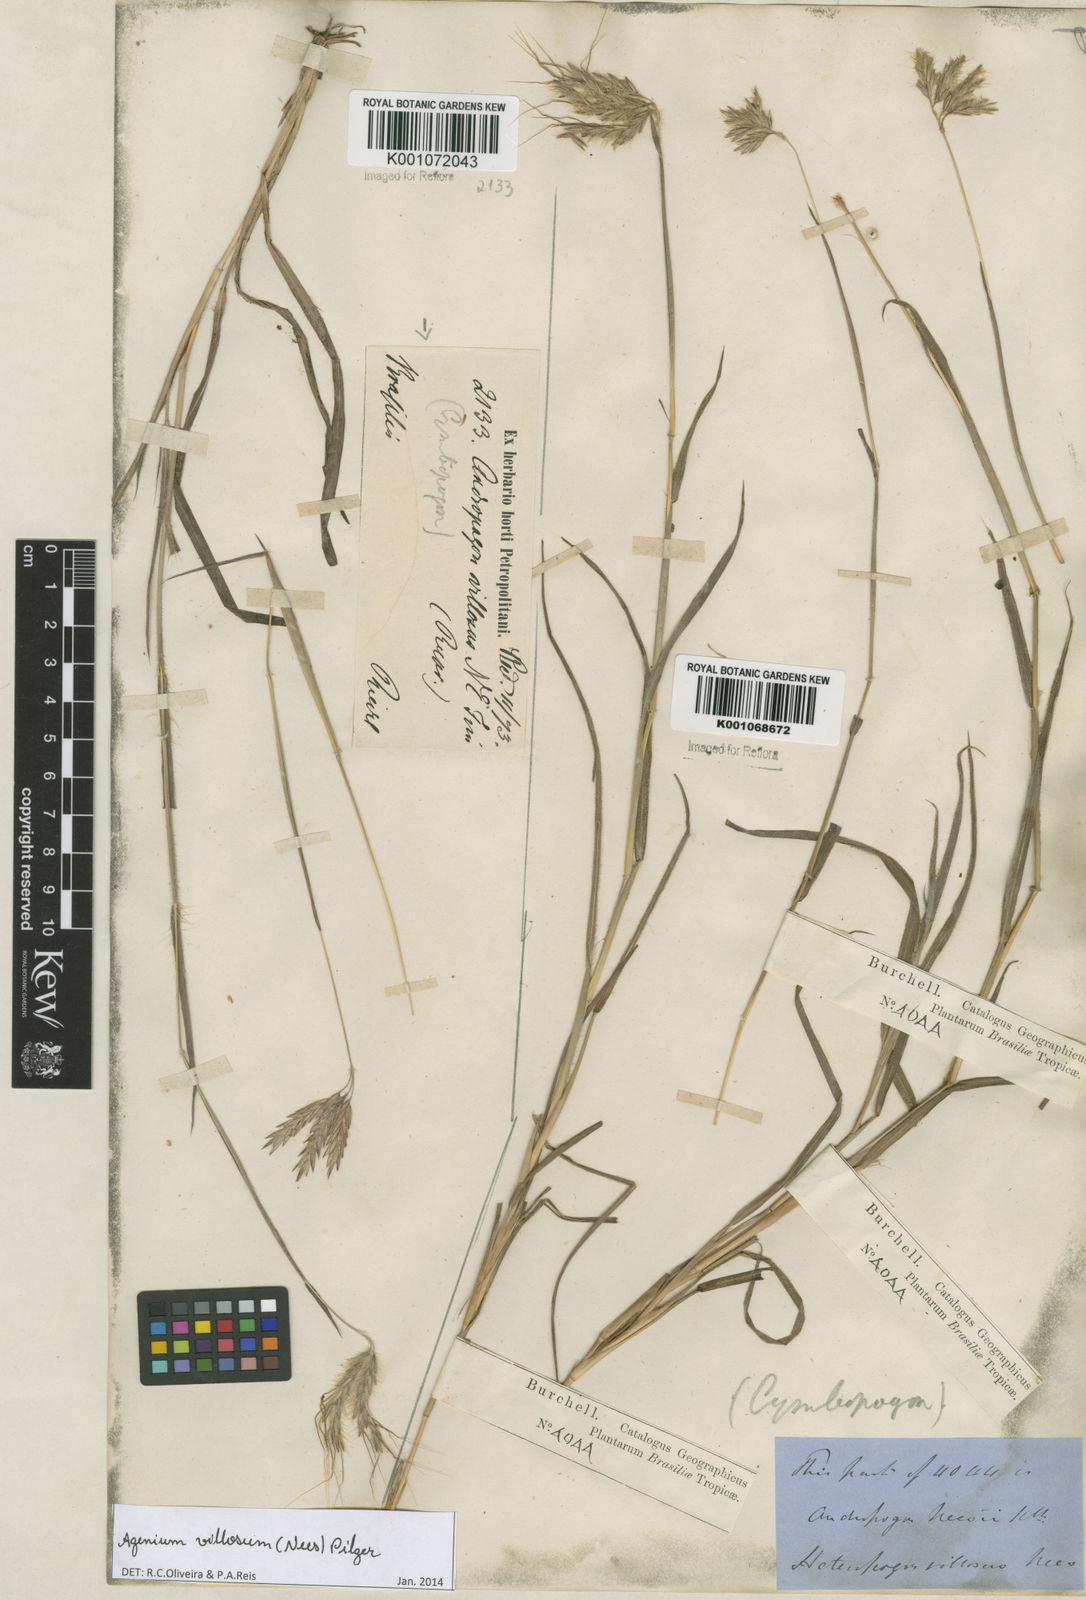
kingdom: Plantae
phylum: Tracheophyta
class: Liliopsida
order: Poales
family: Poaceae
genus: Agenium
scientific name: Agenium villosum
